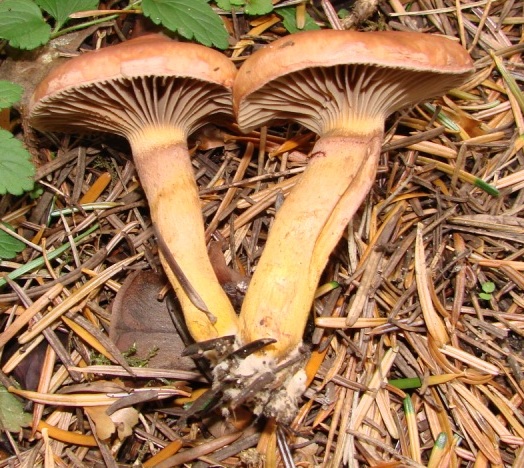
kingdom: Fungi
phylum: Basidiomycota
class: Agaricomycetes
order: Boletales
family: Gomphidiaceae
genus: Chroogomphus
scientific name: Chroogomphus rutilus
